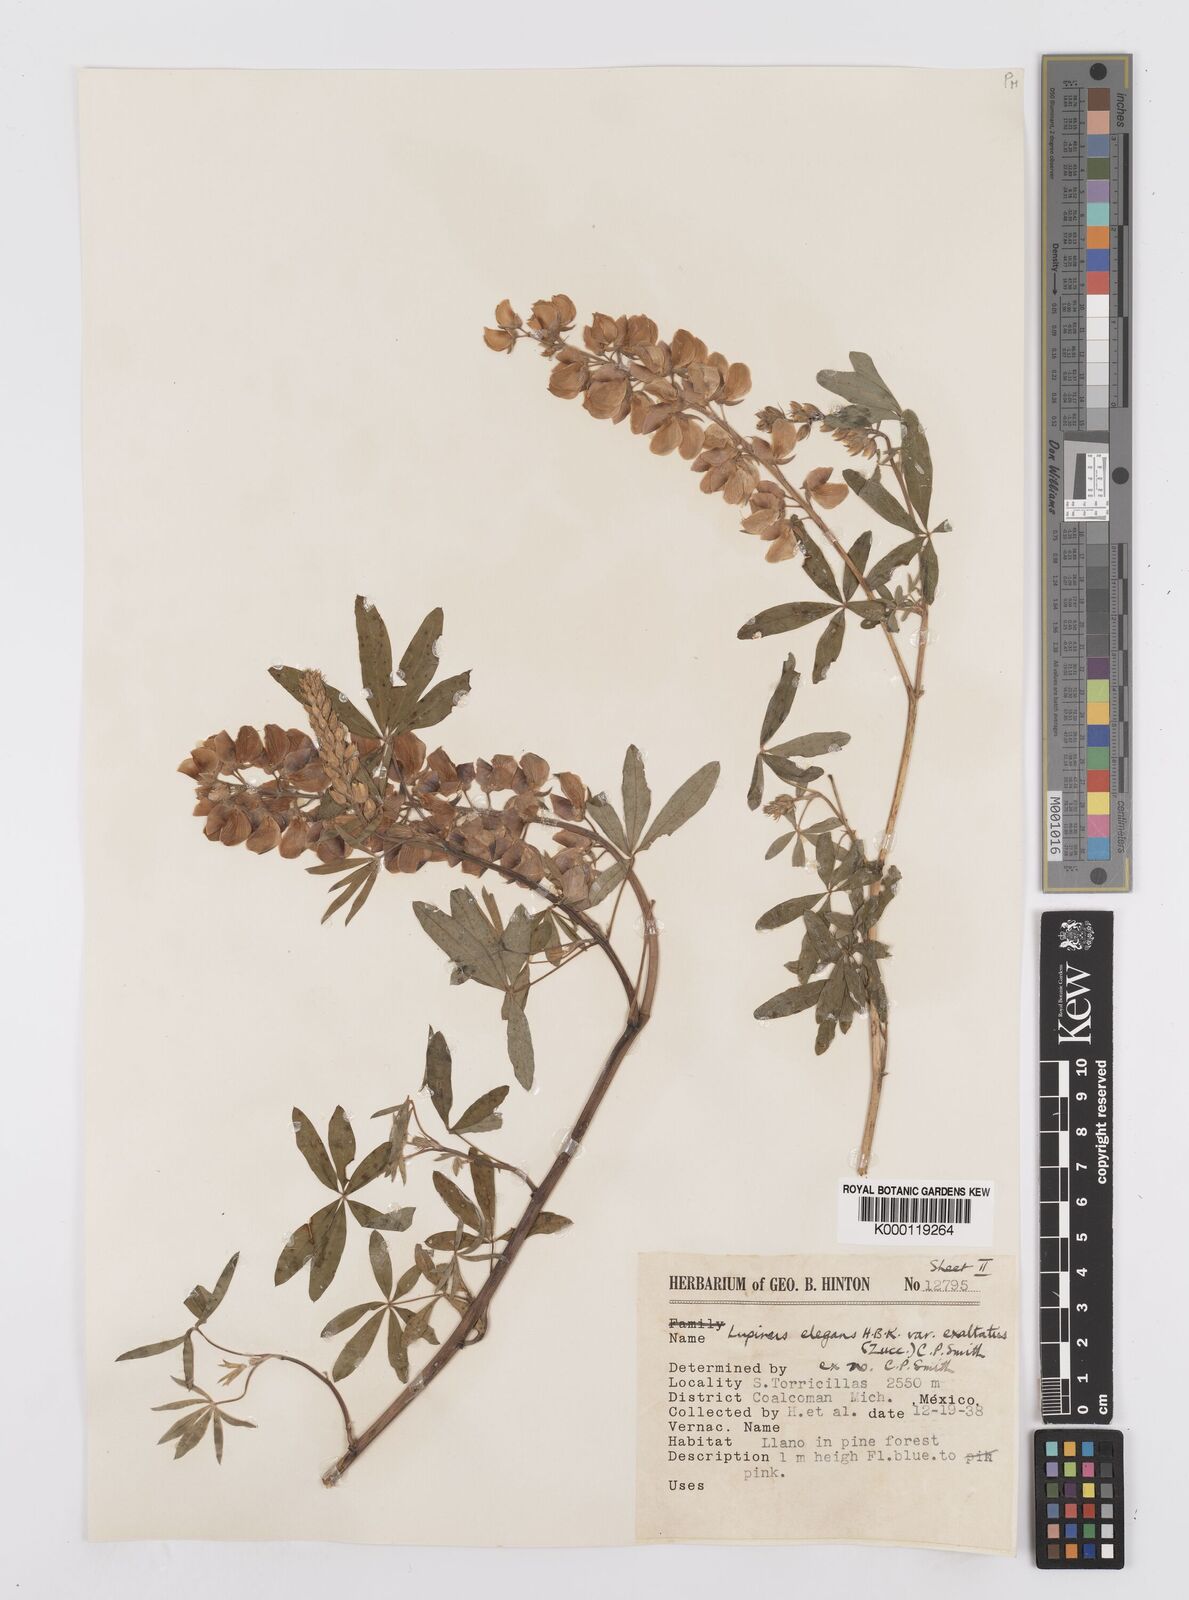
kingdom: Plantae
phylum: Tracheophyta
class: Magnoliopsida
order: Fabales
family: Fabaceae
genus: Lupinus
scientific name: Lupinus elegans
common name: Mexican lupine
